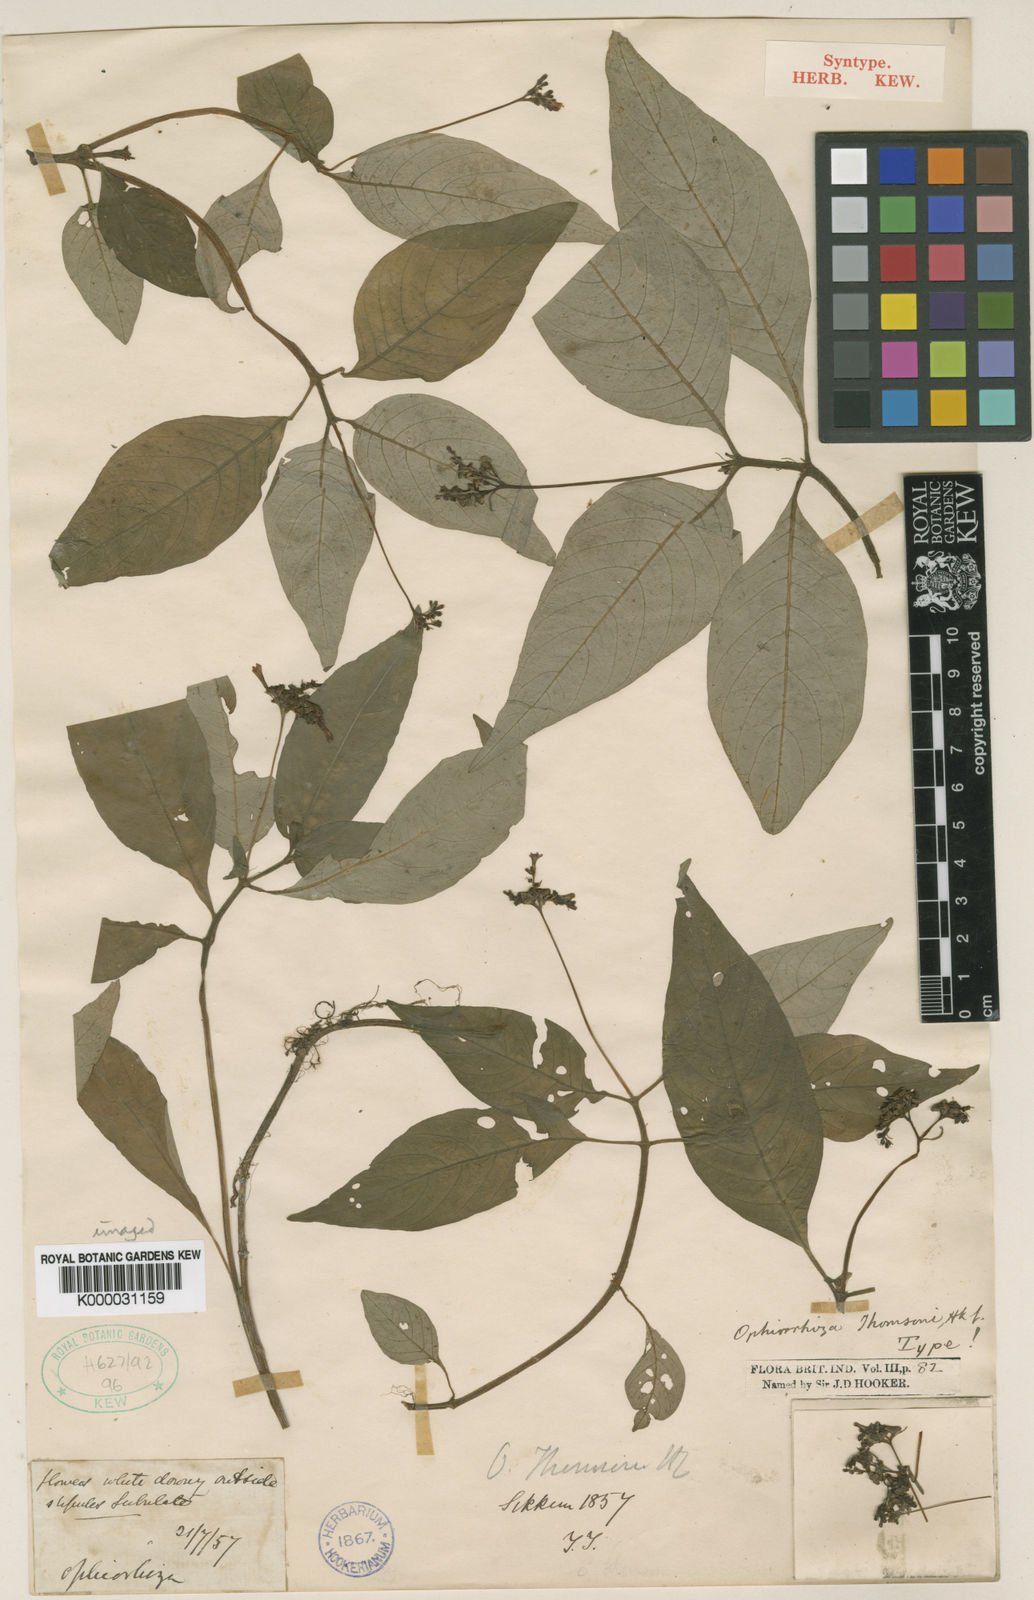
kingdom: Plantae
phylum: Tracheophyta
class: Magnoliopsida
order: Gentianales
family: Rubiaceae
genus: Ophiorrhiza
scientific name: Ophiorrhiza
